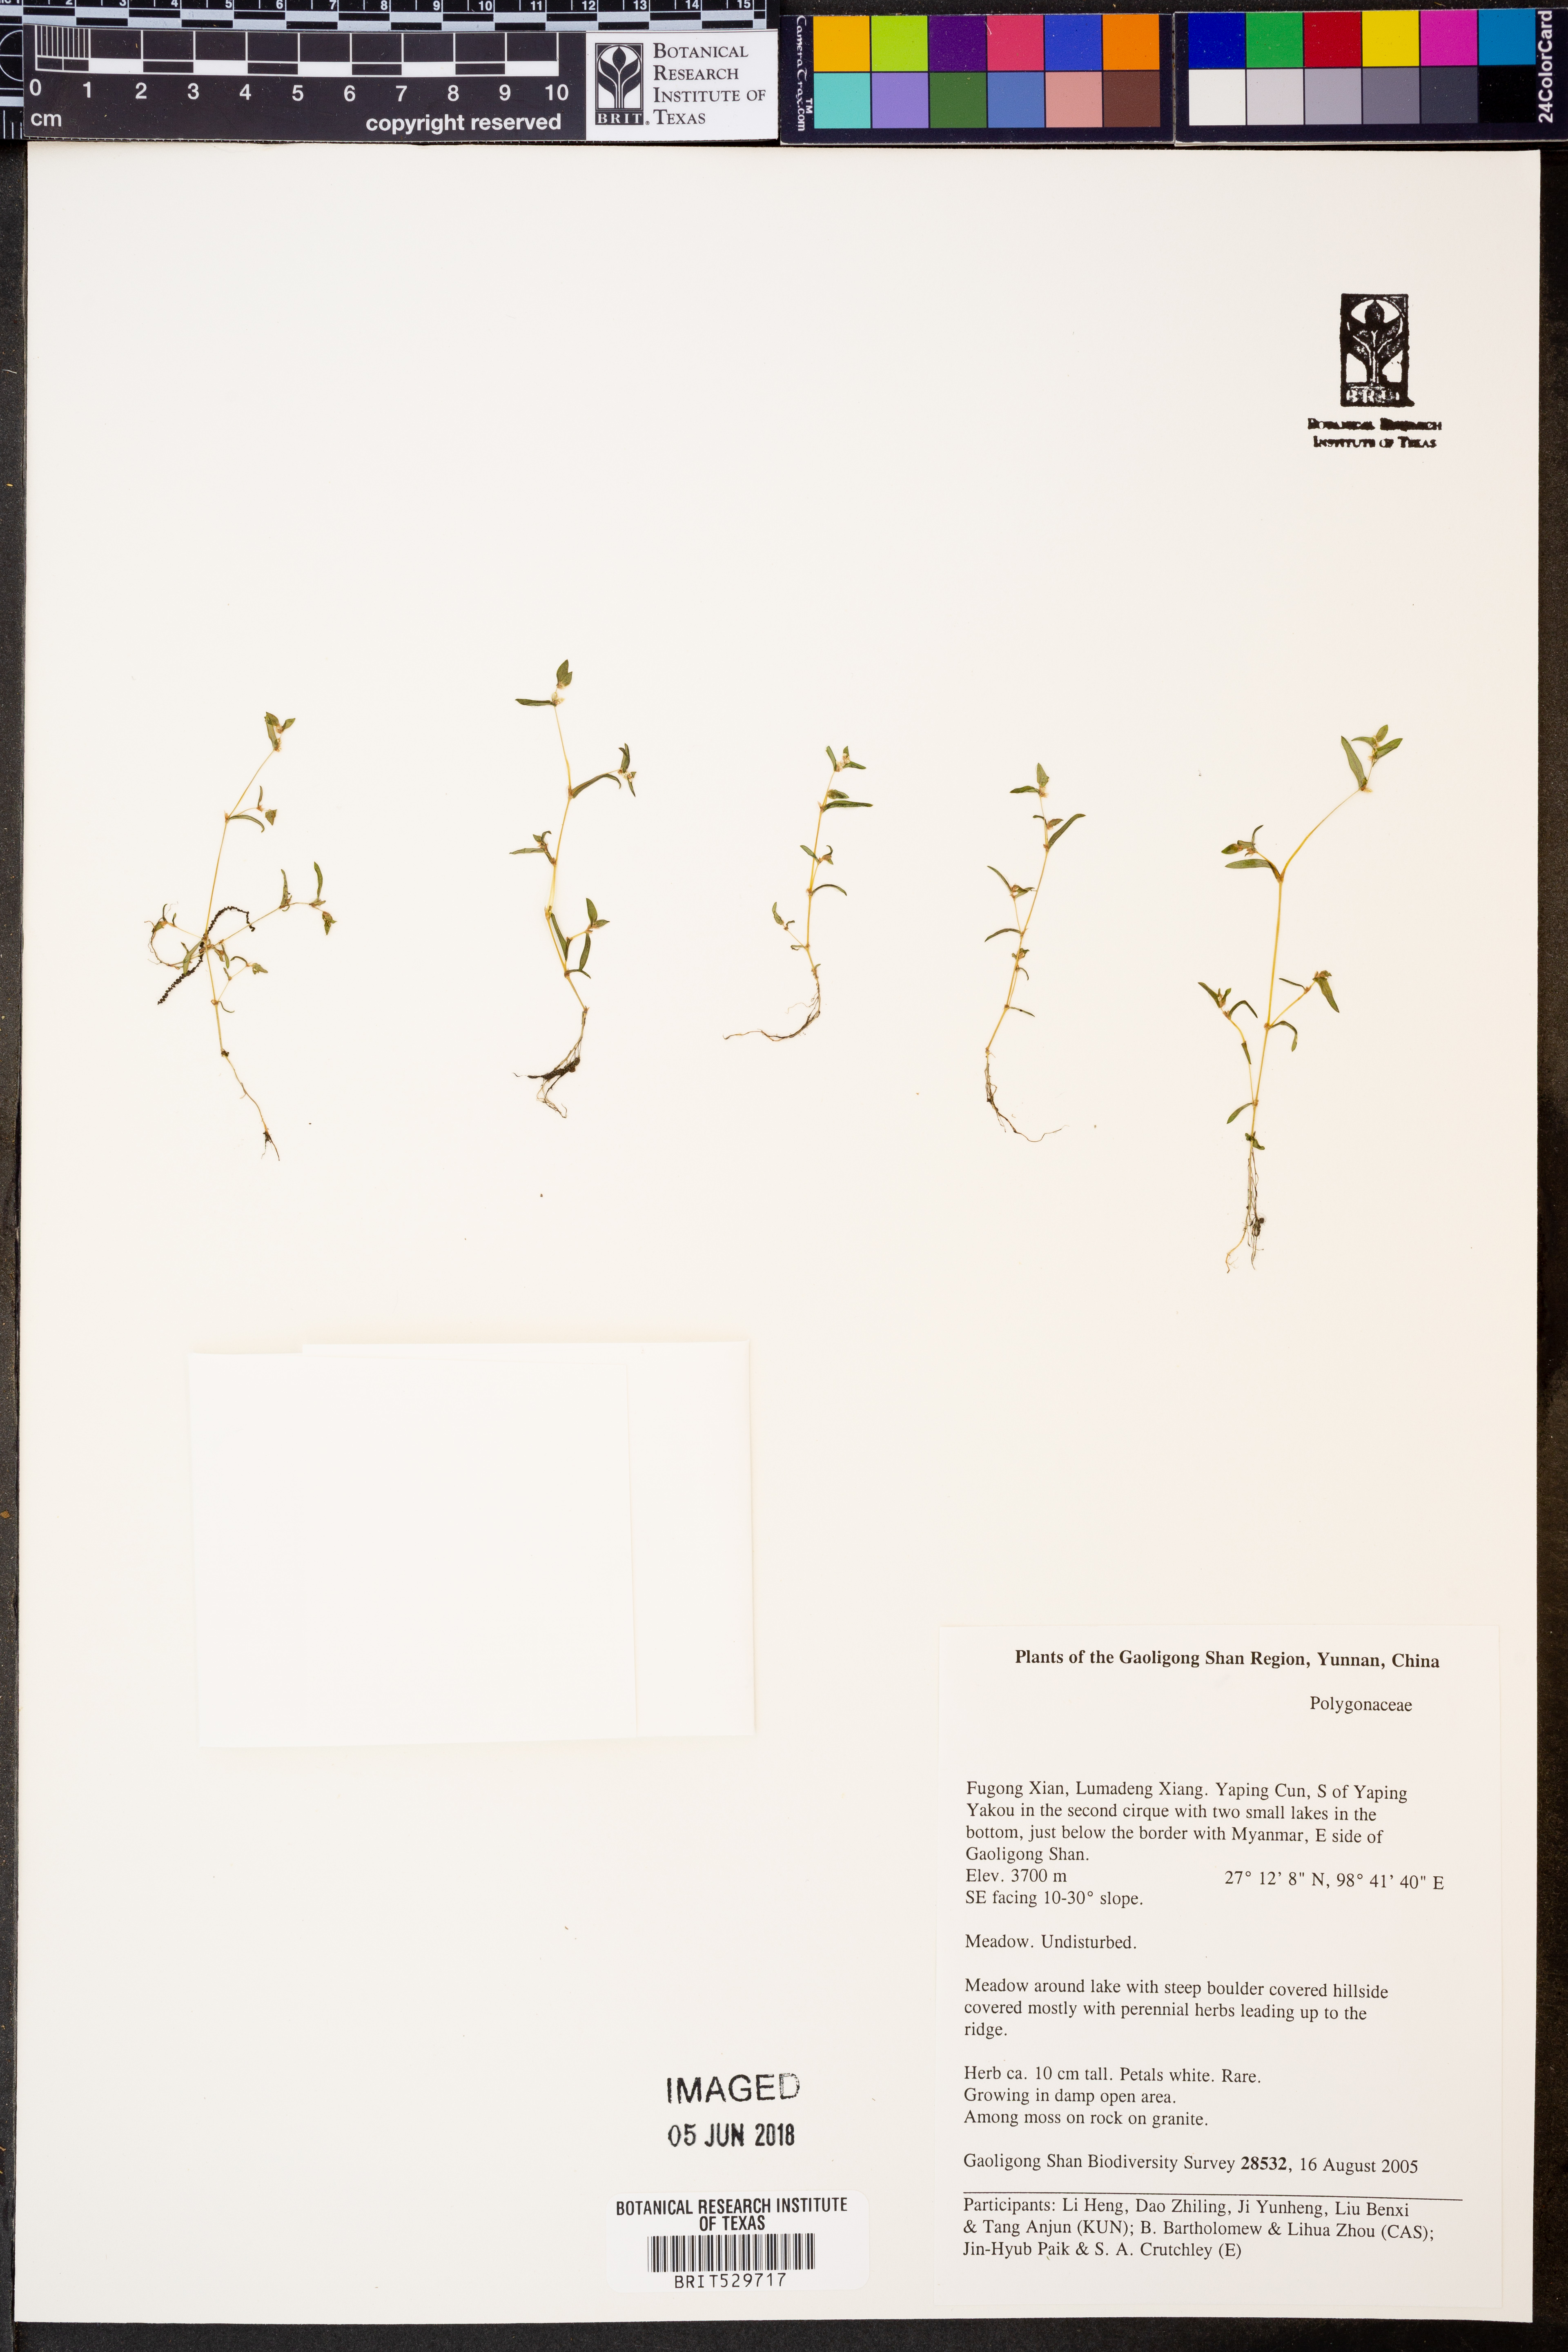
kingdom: Plantae
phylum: Tracheophyta
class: Magnoliopsida
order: Caryophyllales
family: Polygonaceae
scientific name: Polygonaceae
